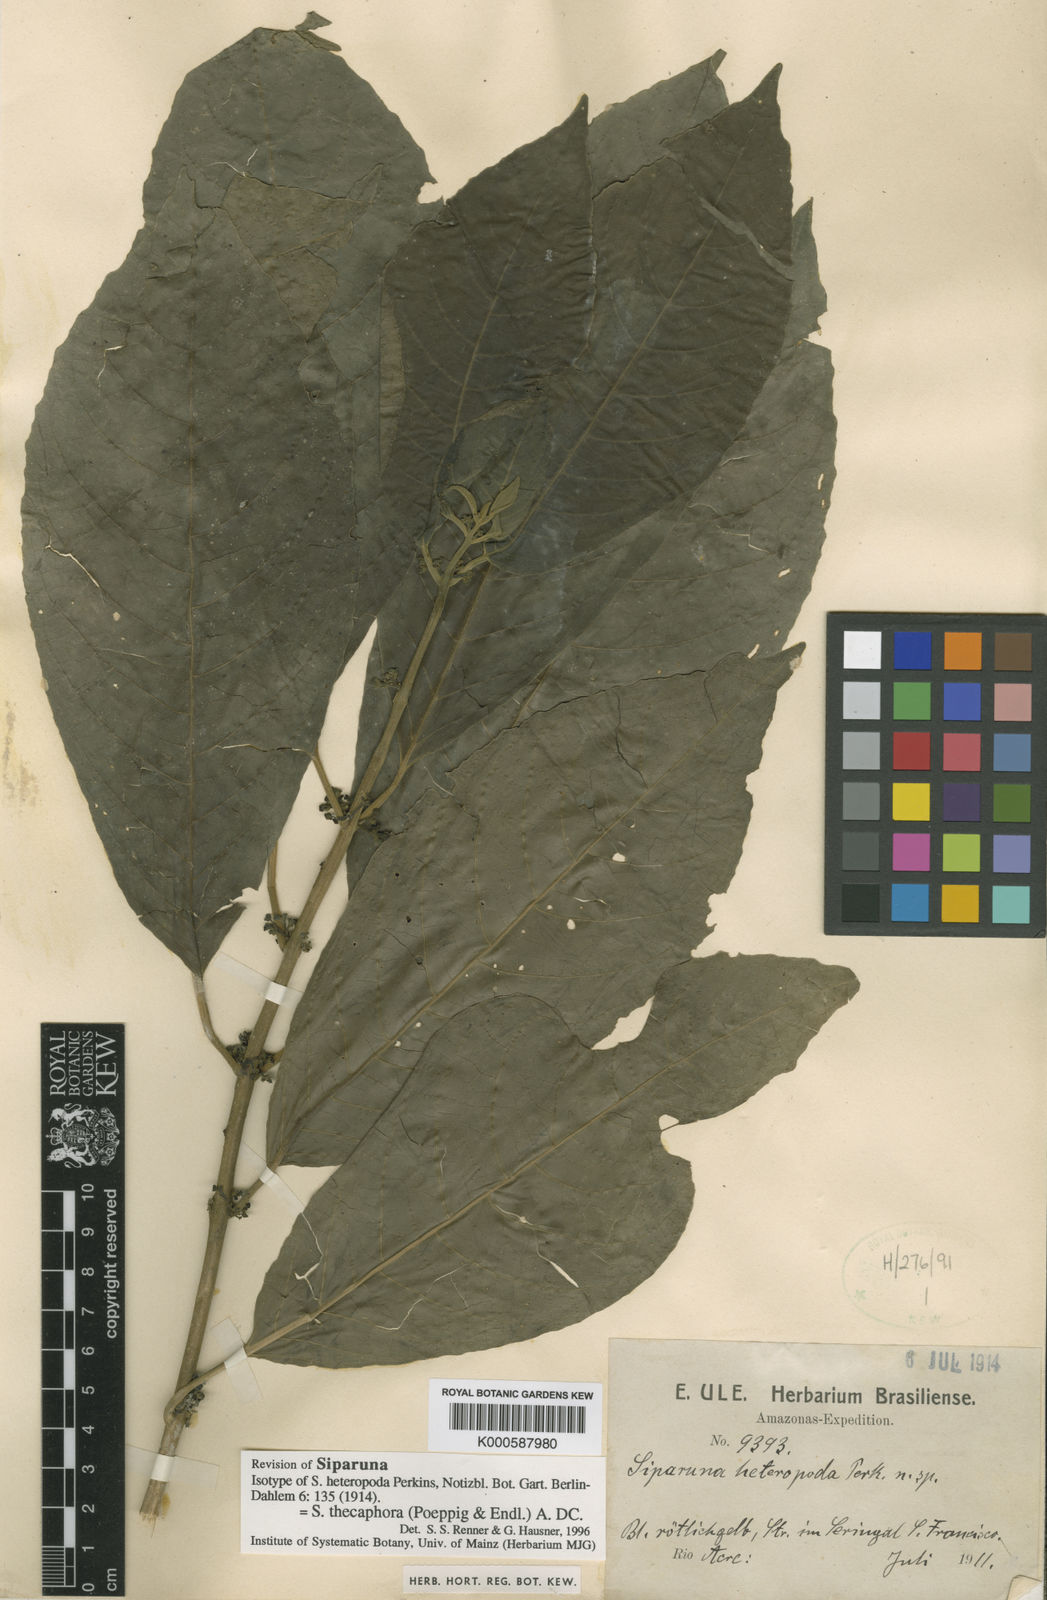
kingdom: Plantae
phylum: Tracheophyta
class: Magnoliopsida
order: Laurales
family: Siparunaceae
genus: Siparuna
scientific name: Siparuna thecaphora
